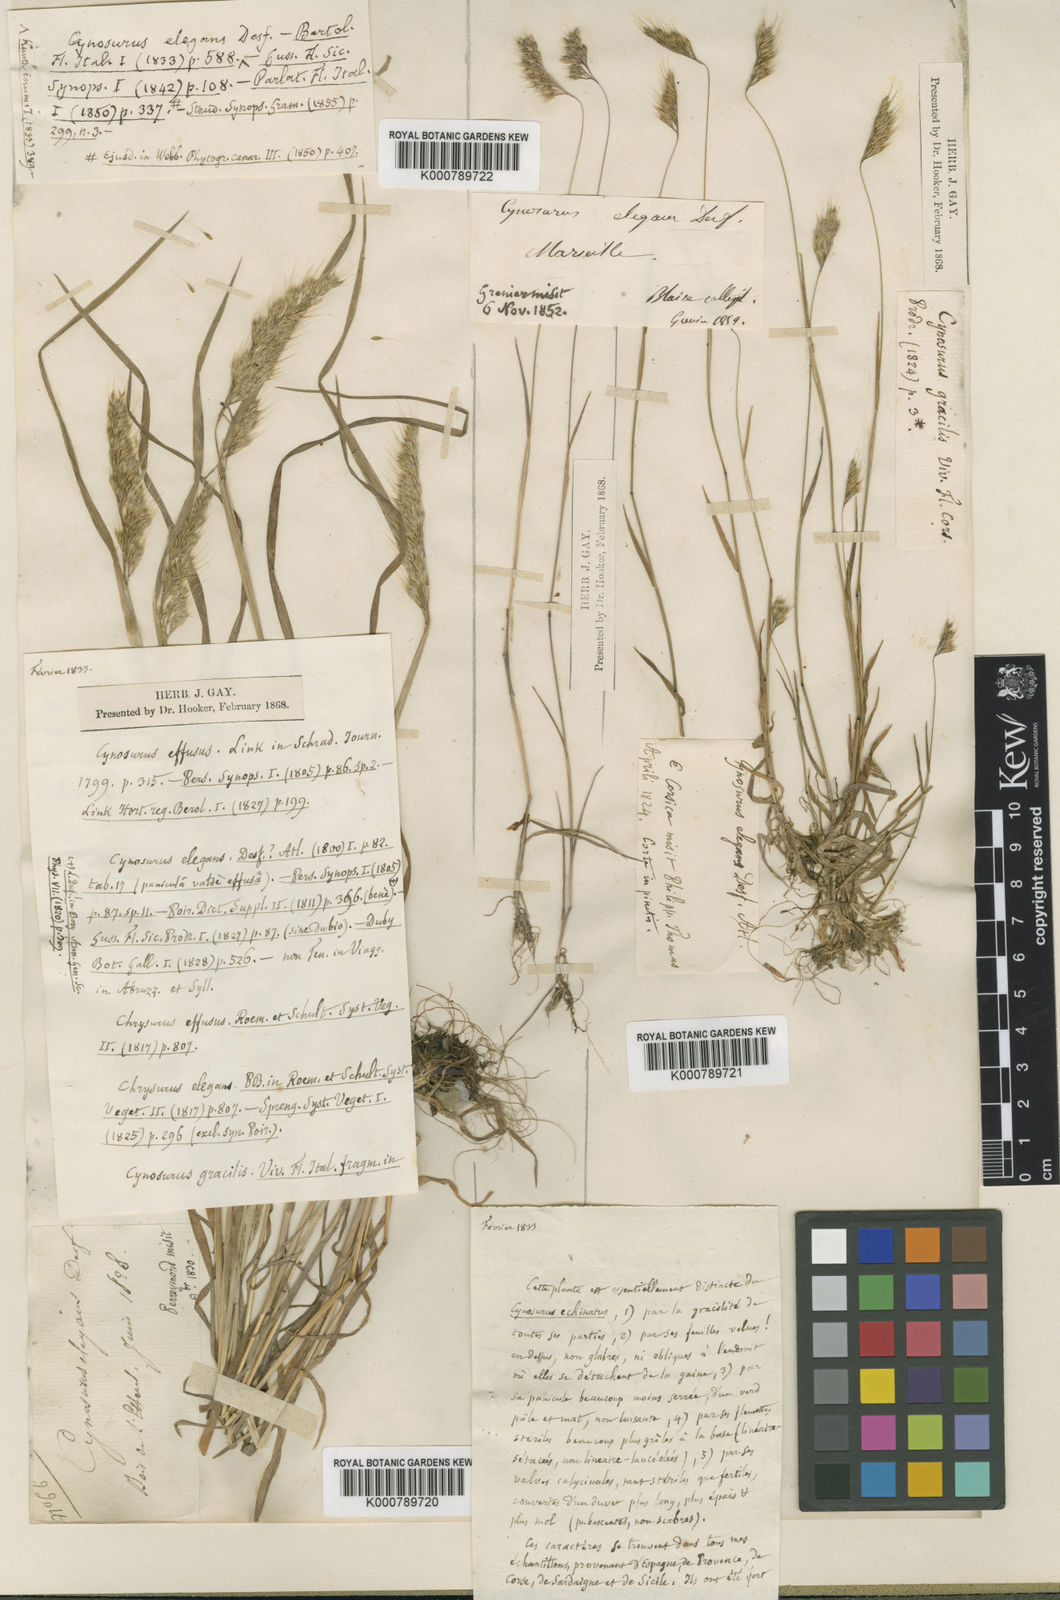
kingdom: Plantae
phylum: Tracheophyta
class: Liliopsida
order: Poales
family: Poaceae
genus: Cynosurus
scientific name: Cynosurus elegans
